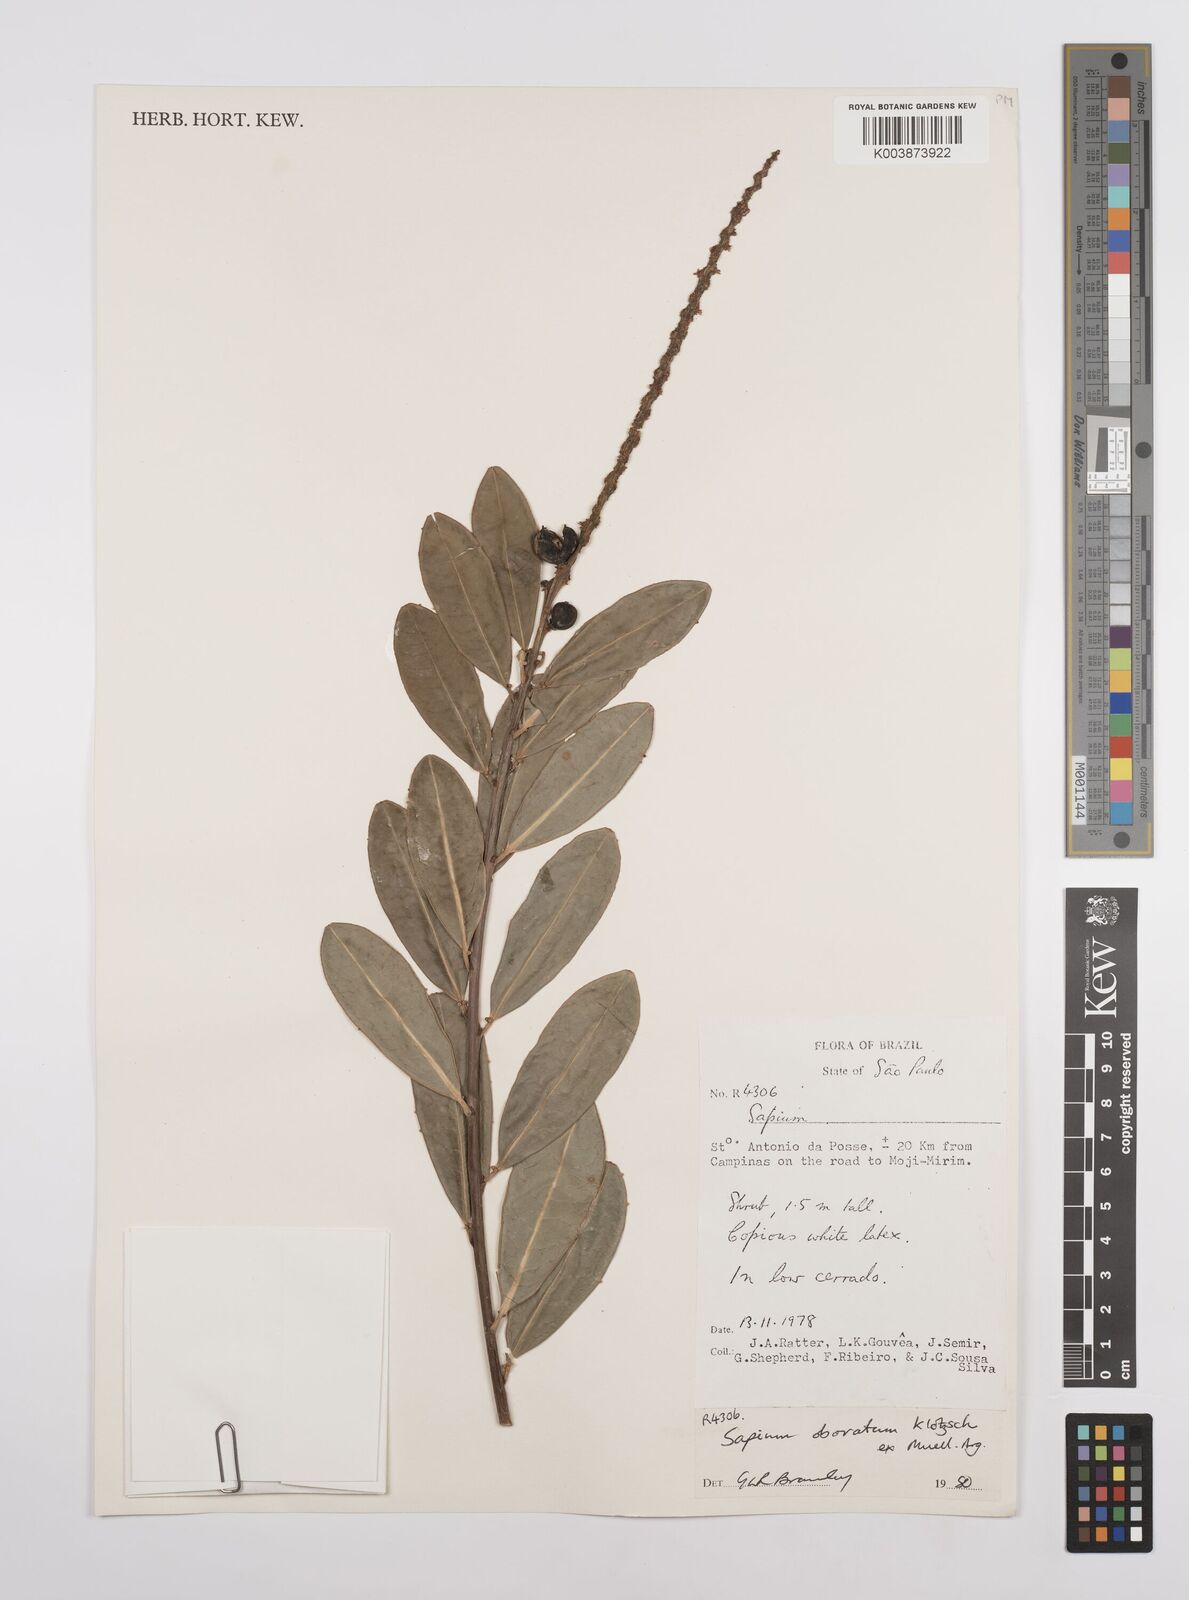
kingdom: Plantae
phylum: Tracheophyta
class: Magnoliopsida
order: Malpighiales
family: Euphorbiaceae
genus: Sapium
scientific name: Sapium obovatum
